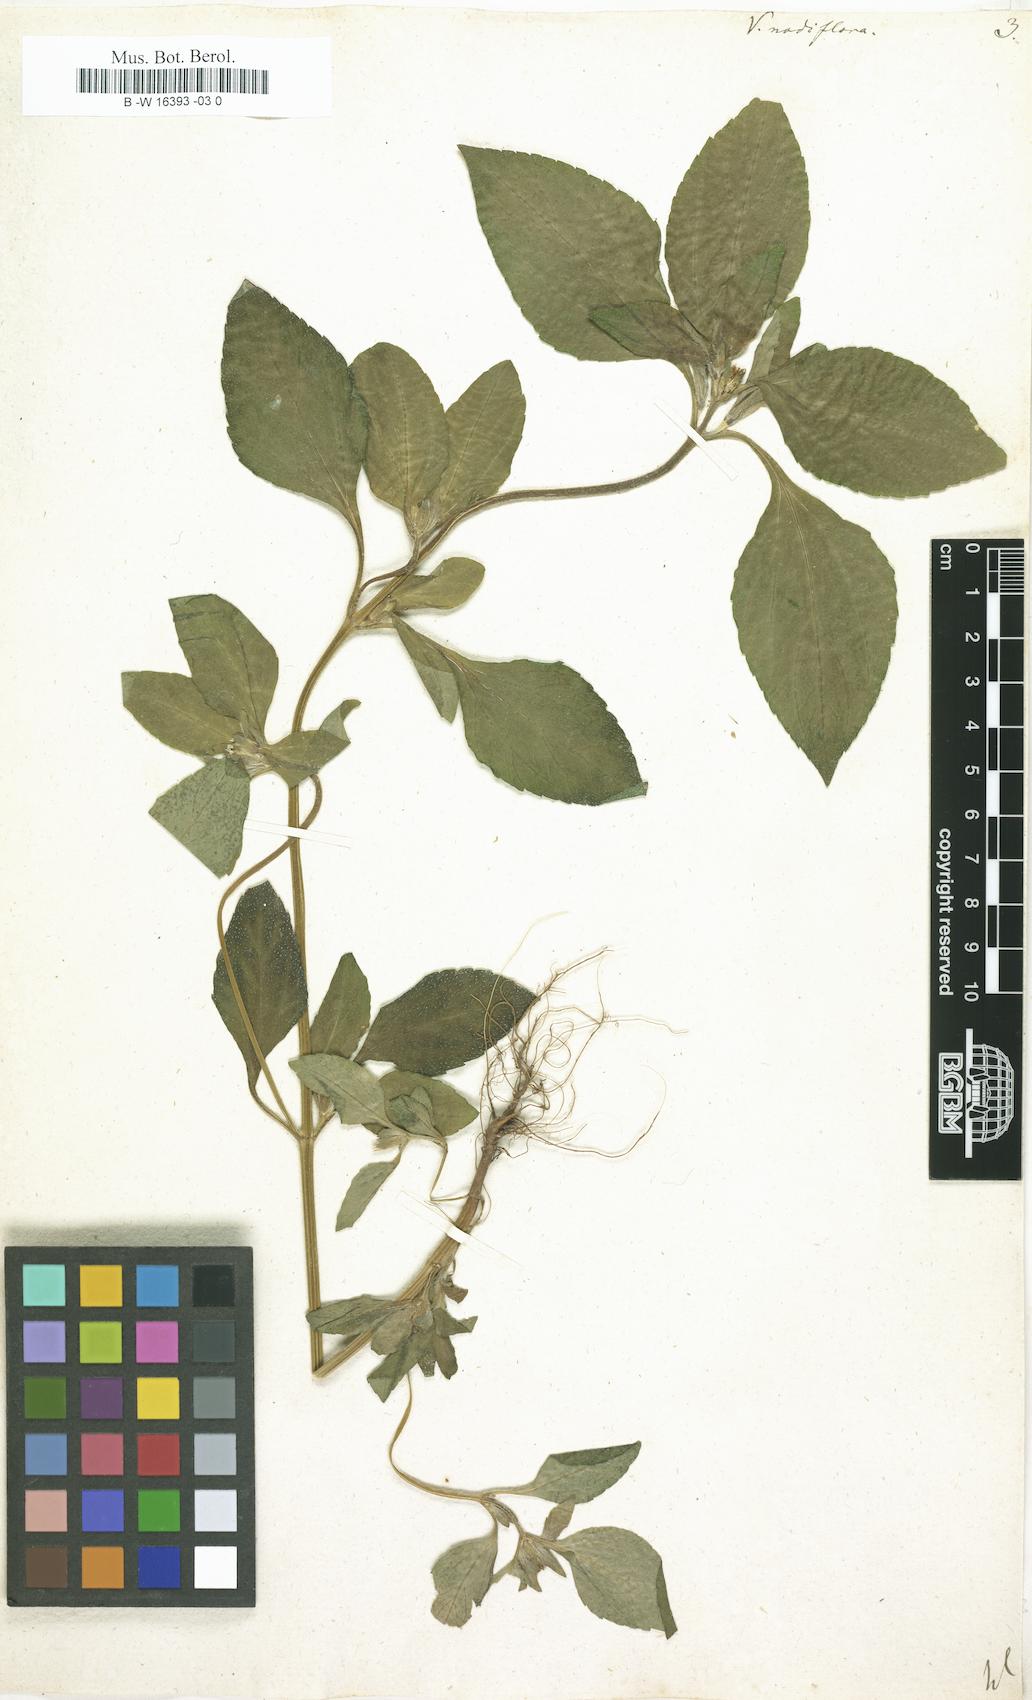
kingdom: Plantae
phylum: Tracheophyta
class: Magnoliopsida
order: Asterales
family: Asteraceae
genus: Synedrella
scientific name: Synedrella nodiflora
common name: Nodeweed
